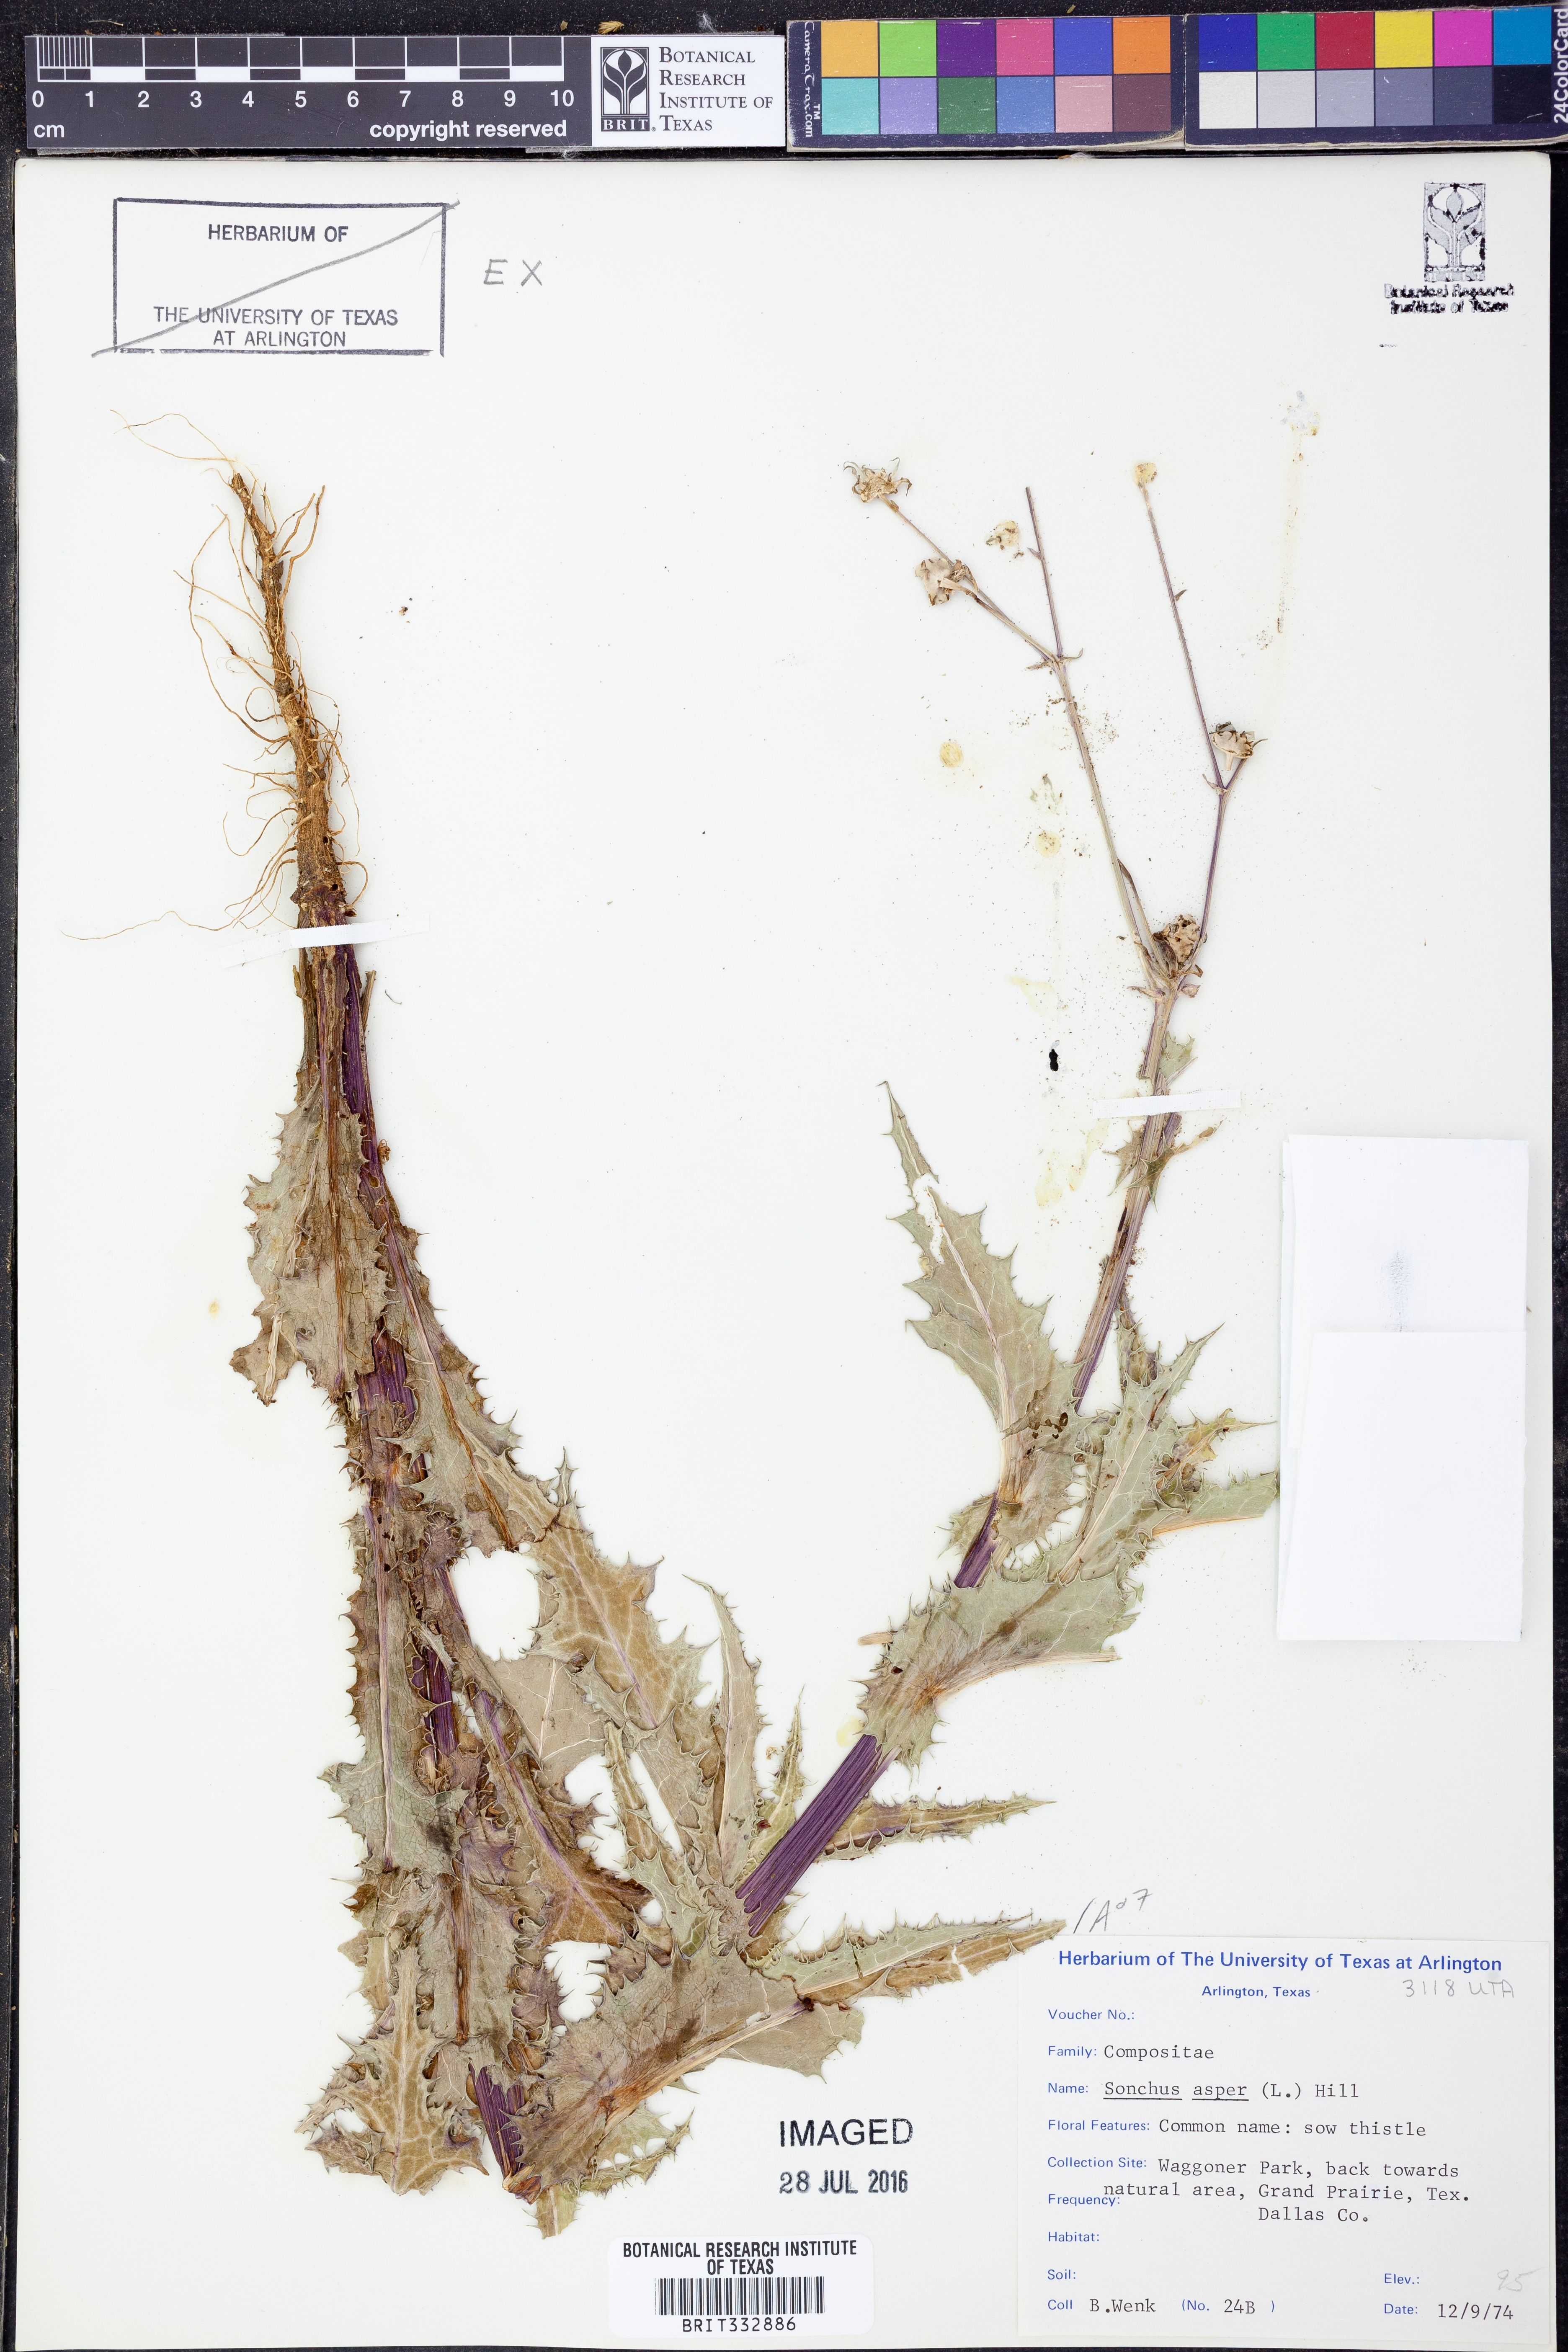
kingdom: Plantae
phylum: Tracheophyta
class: Magnoliopsida
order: Asterales
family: Asteraceae
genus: Sonchus
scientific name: Sonchus asper
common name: Prickly sow-thistle
